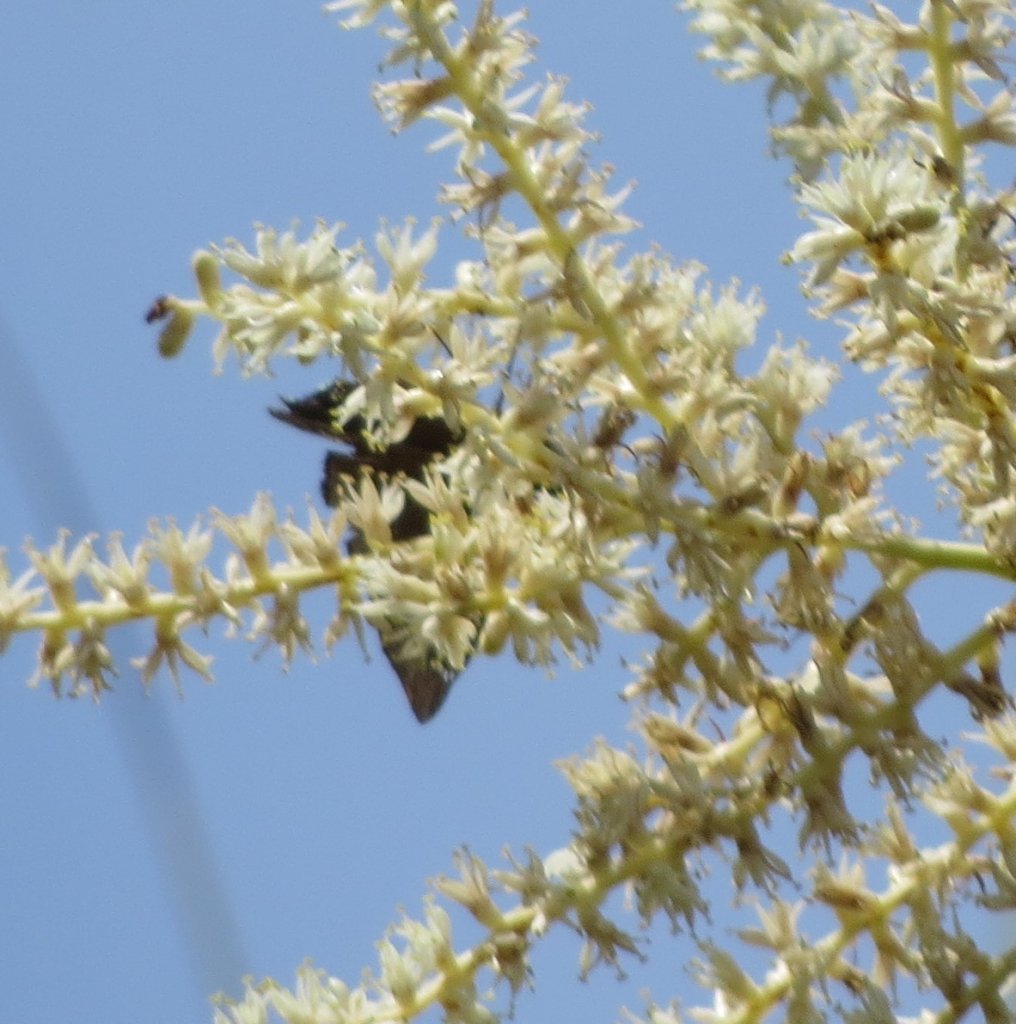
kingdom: Animalia
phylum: Arthropoda
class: Insecta
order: Lepidoptera
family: Hesperiidae
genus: Gesta
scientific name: Gesta
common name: Horace's Duskywing
